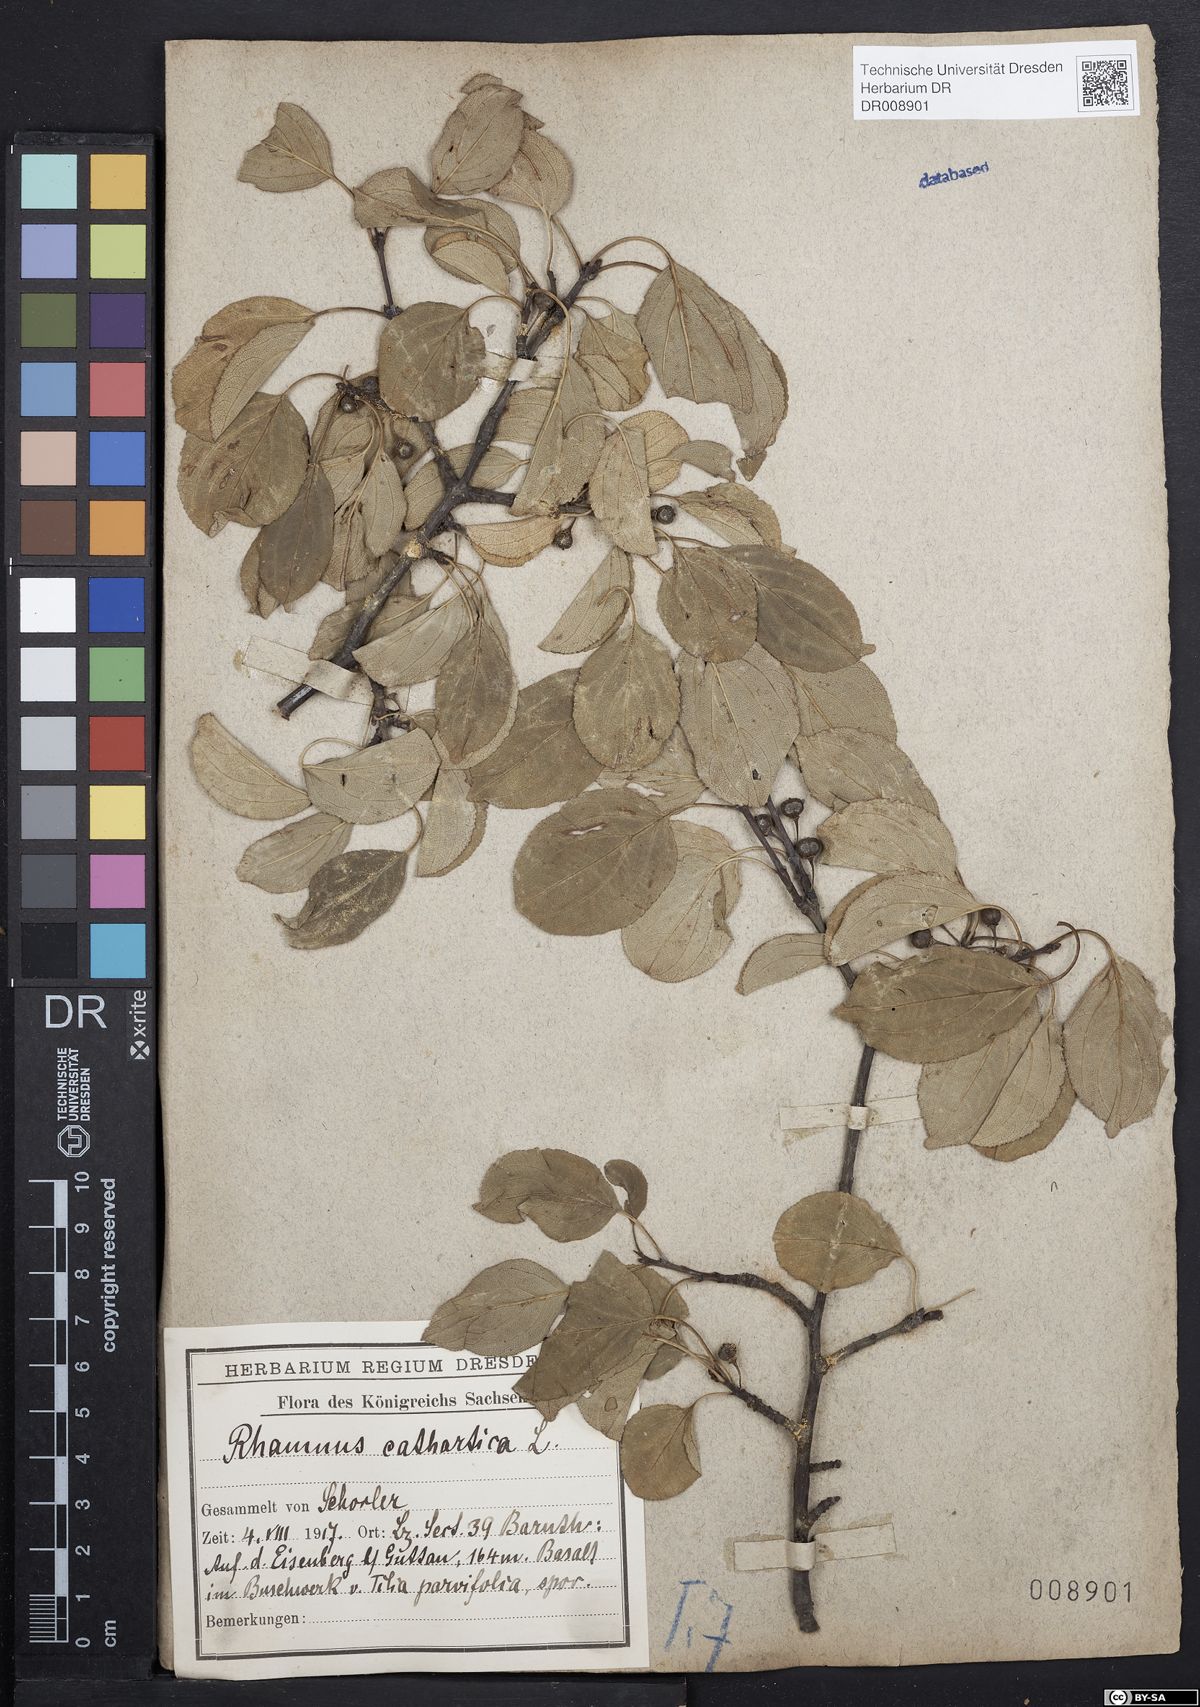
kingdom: Plantae
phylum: Tracheophyta
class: Magnoliopsida
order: Rosales
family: Rhamnaceae
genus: Rhamnus
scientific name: Rhamnus cathartica
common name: Common buckthorn
